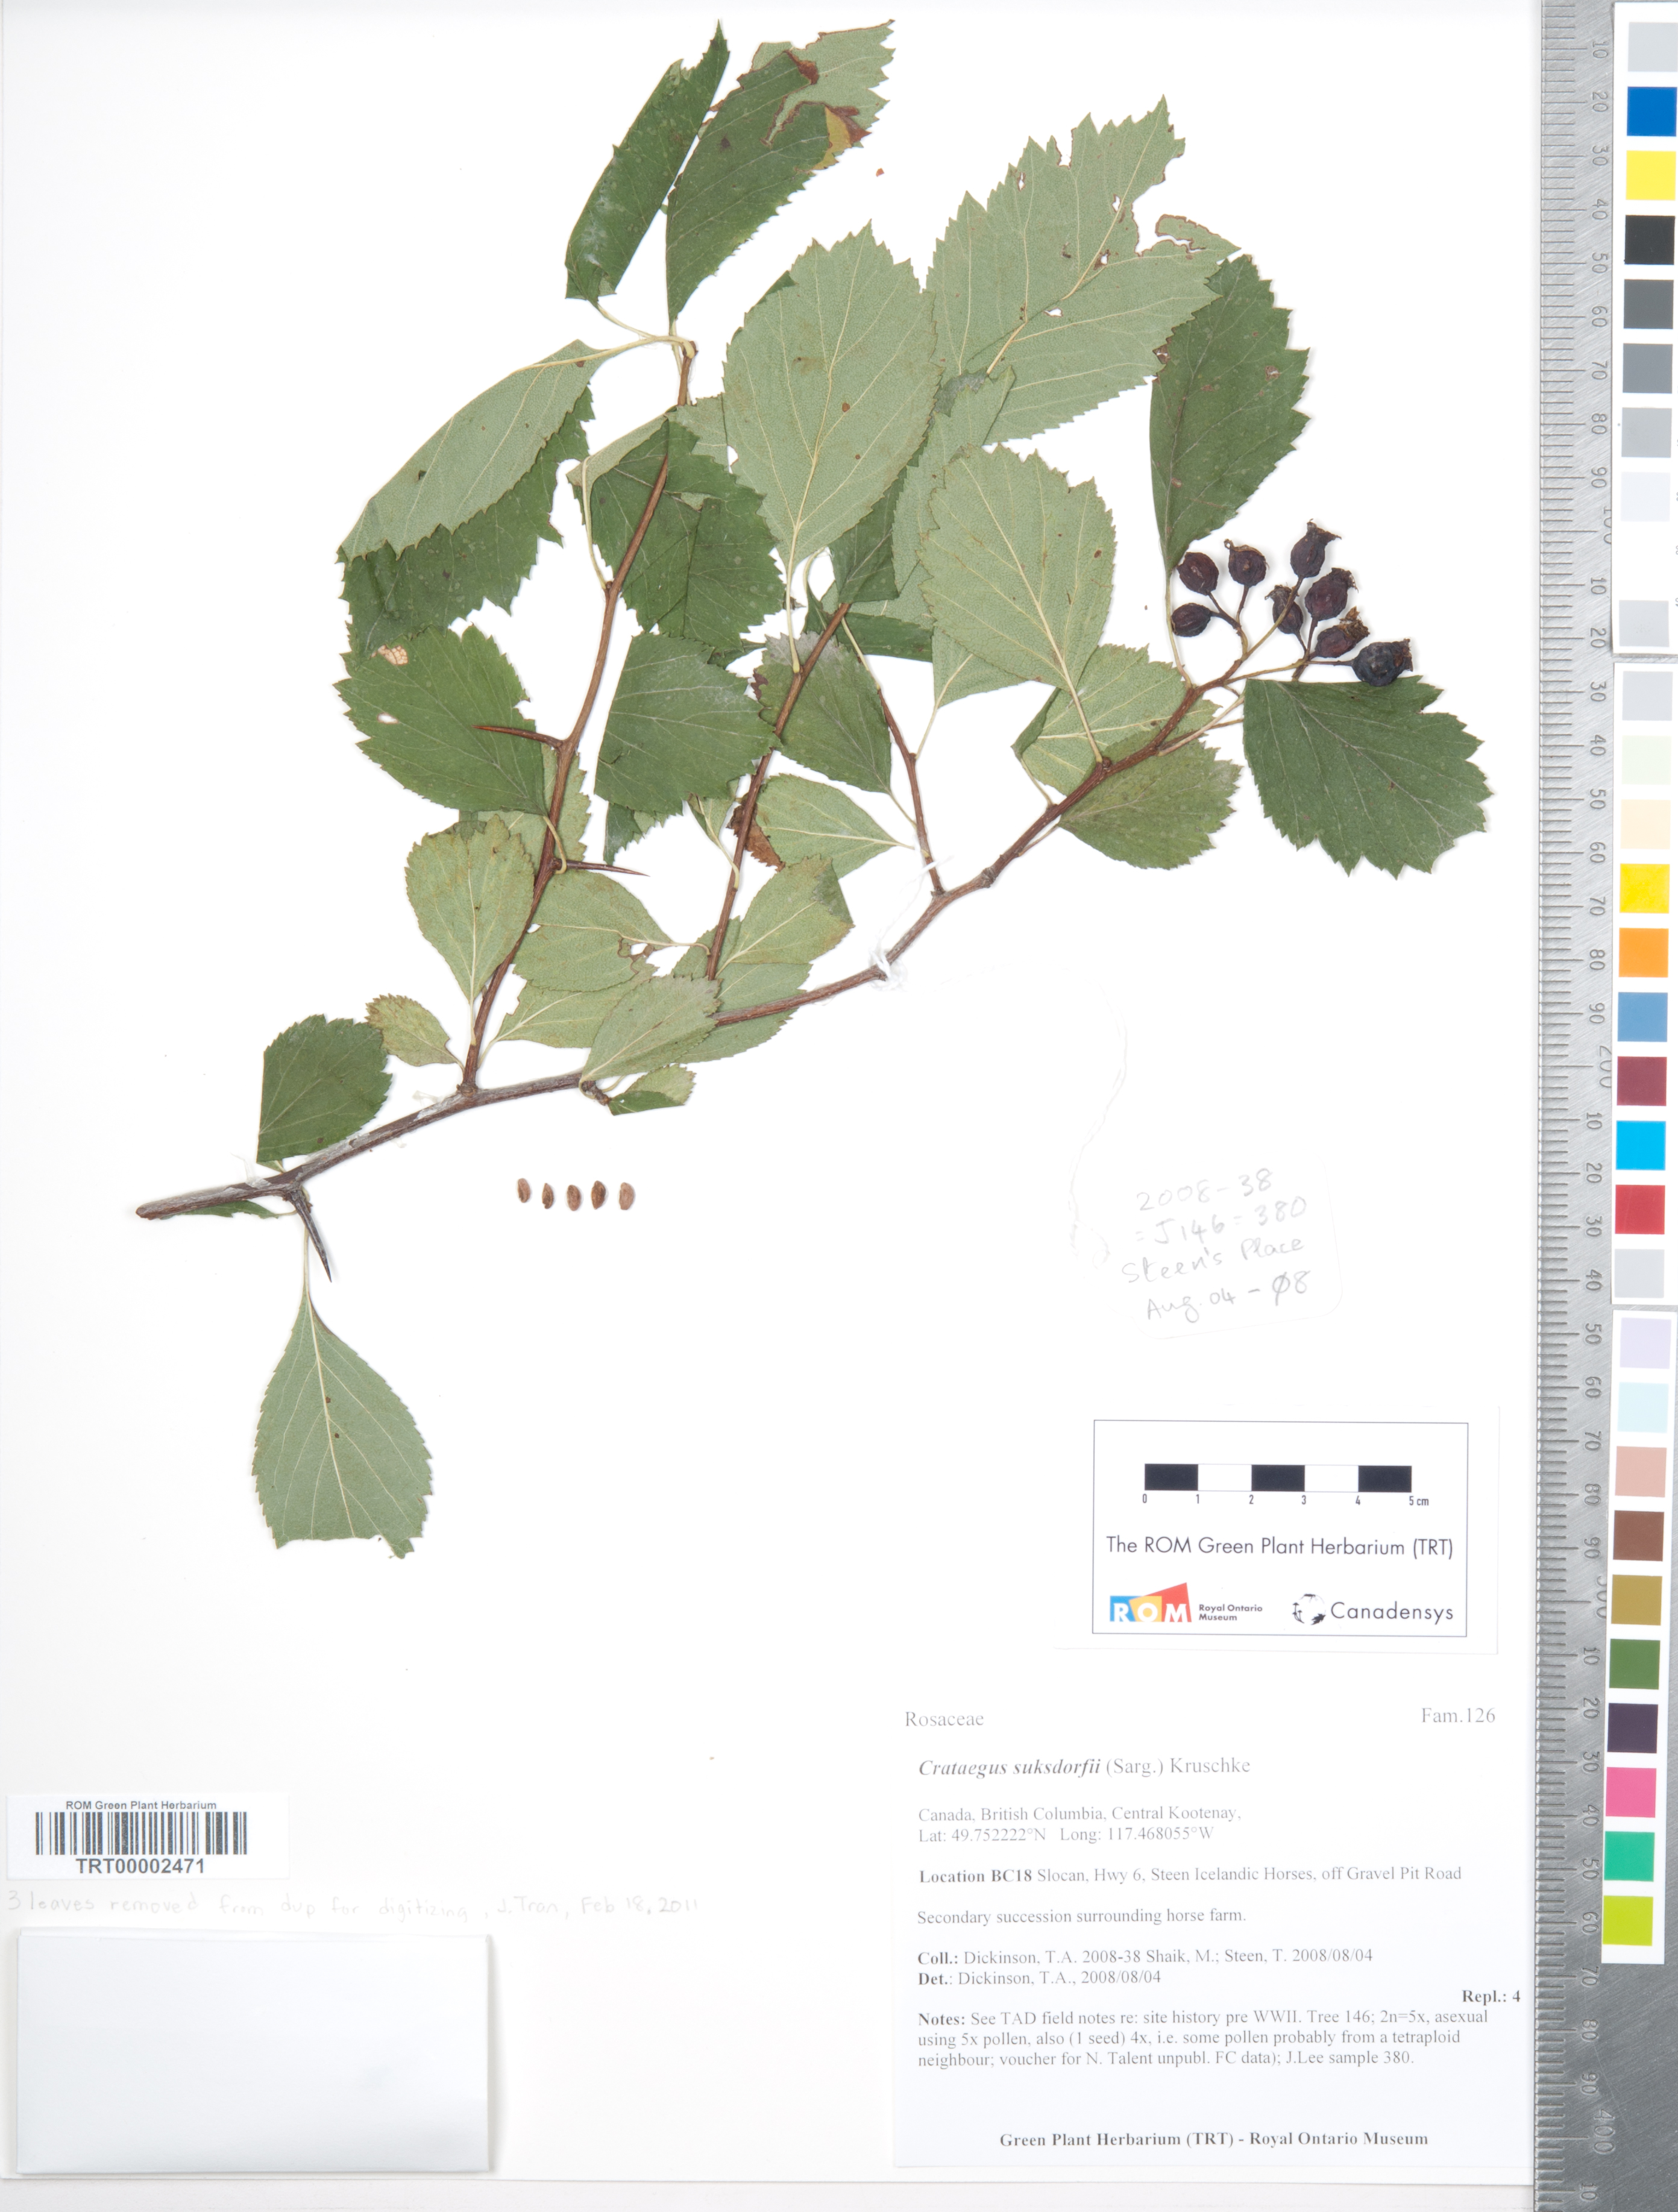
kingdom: Plantae
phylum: Tracheophyta
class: Magnoliopsida
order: Rosales
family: Rosaceae
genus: Crataegus
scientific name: Crataegus gaylussacia
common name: Huckleberry hawthorn
